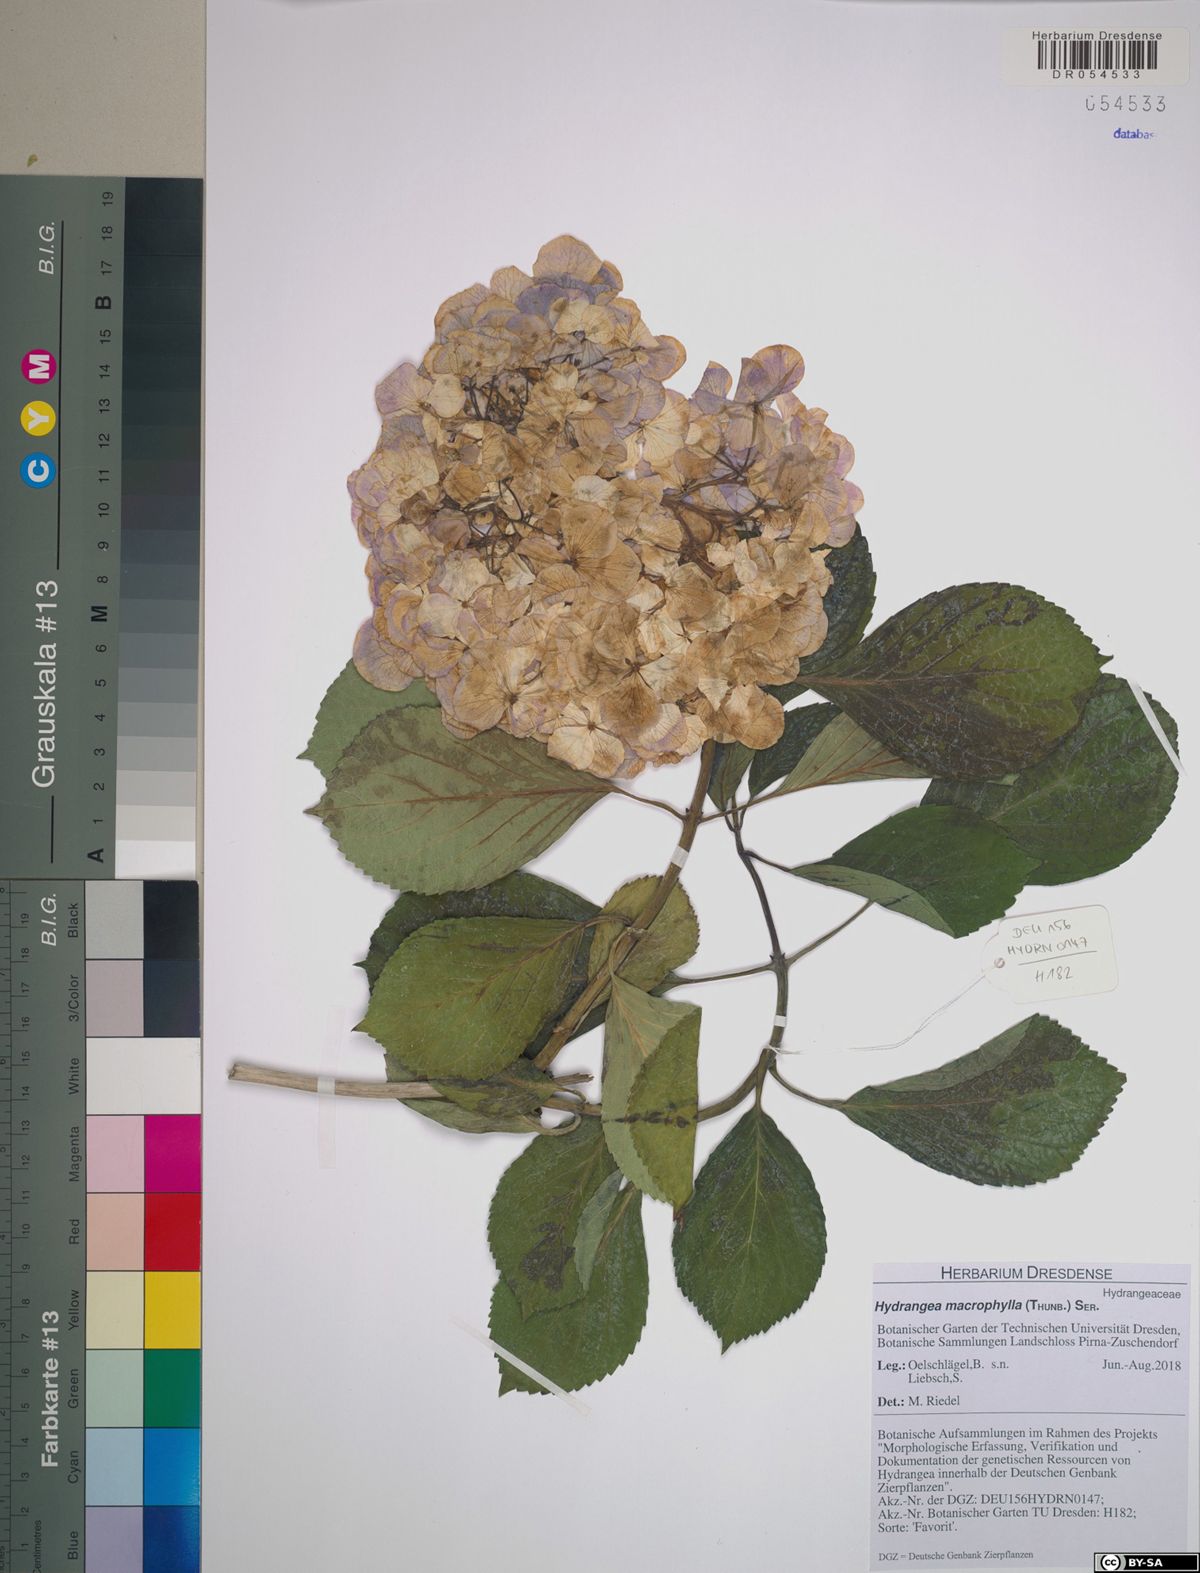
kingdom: Plantae
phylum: Tracheophyta
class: Magnoliopsida
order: Cornales
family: Hydrangeaceae
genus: Hydrangea
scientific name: Hydrangea macrophylla
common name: Hydrangea
